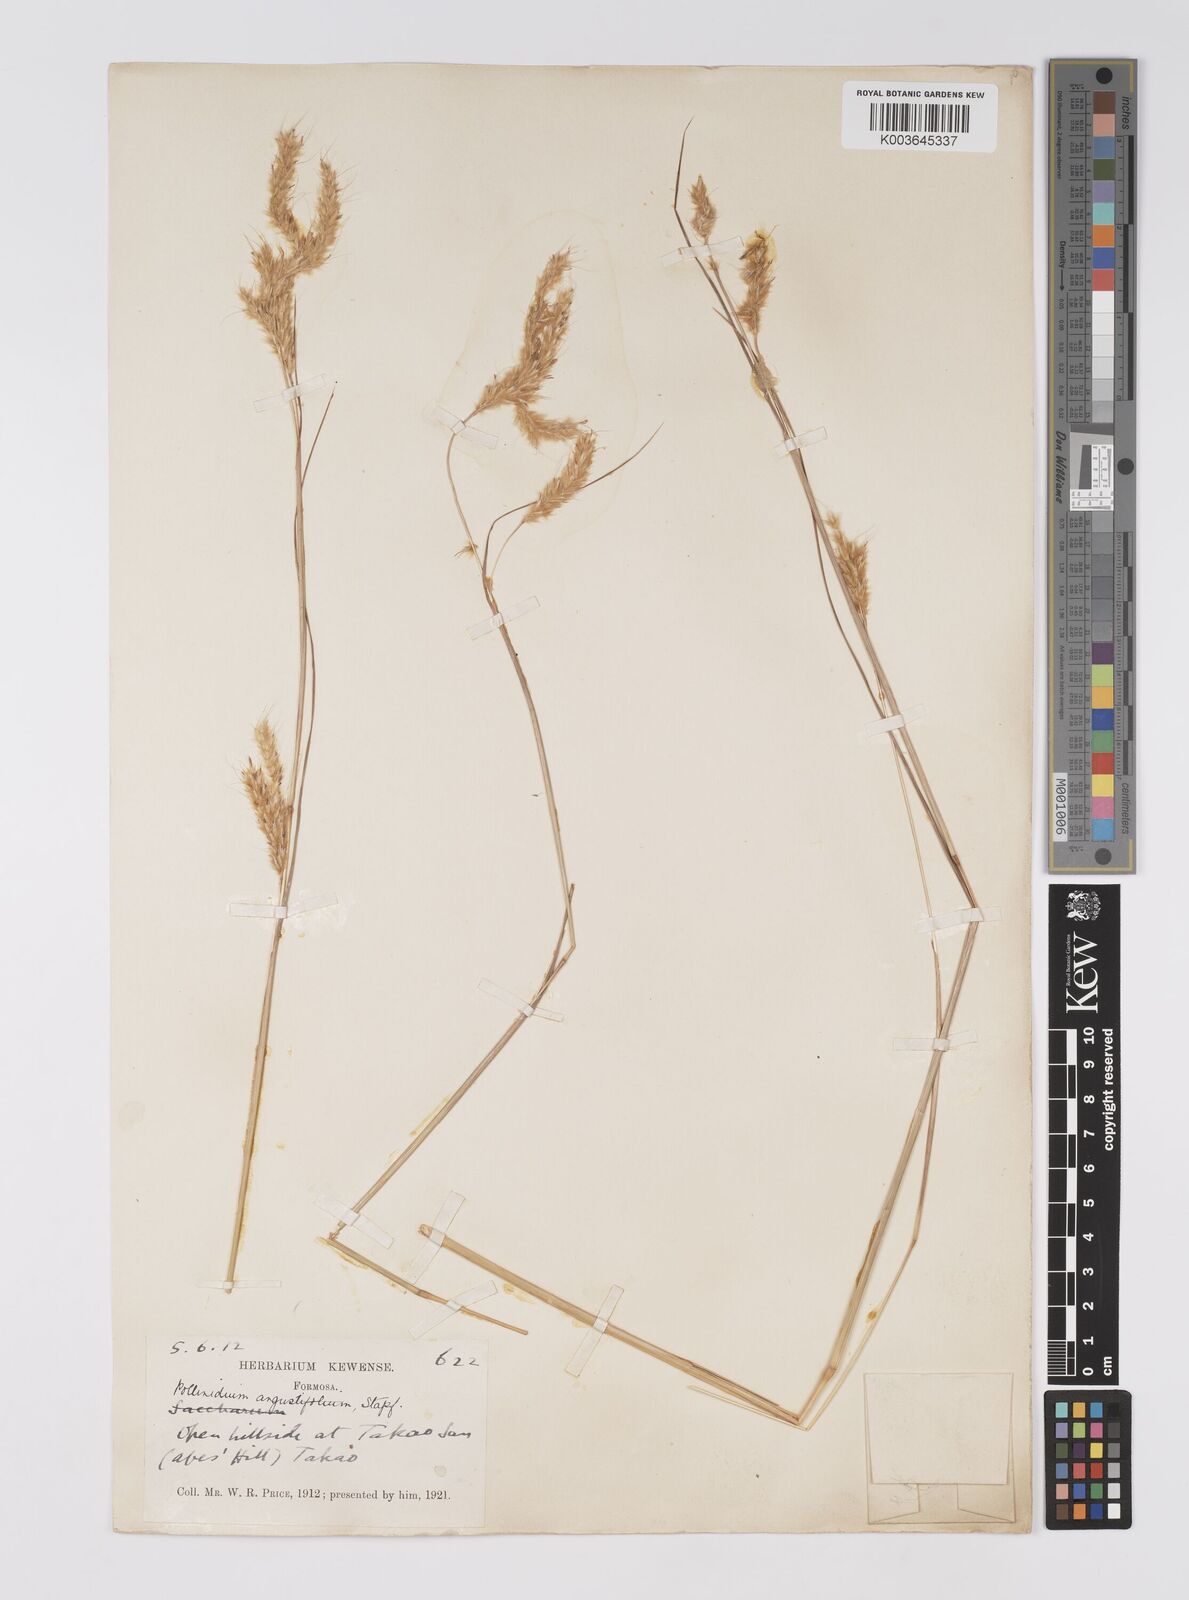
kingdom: Plantae
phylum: Tracheophyta
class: Liliopsida
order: Poales
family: Poaceae
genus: Eulaliopsis
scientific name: Eulaliopsis binata
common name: Baib grass
